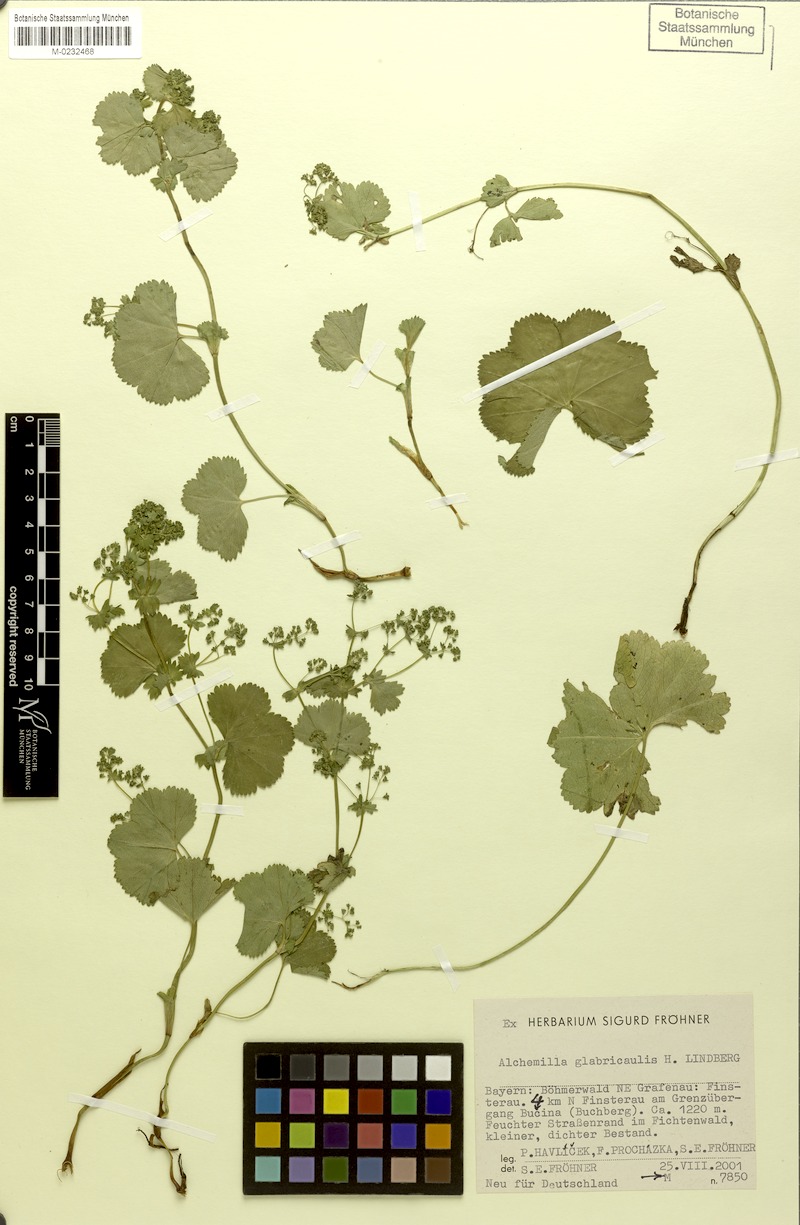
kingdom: Plantae
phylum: Tracheophyta
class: Magnoliopsida
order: Rosales
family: Rosaceae
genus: Alchemilla
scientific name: Alchemilla glabricaulis
